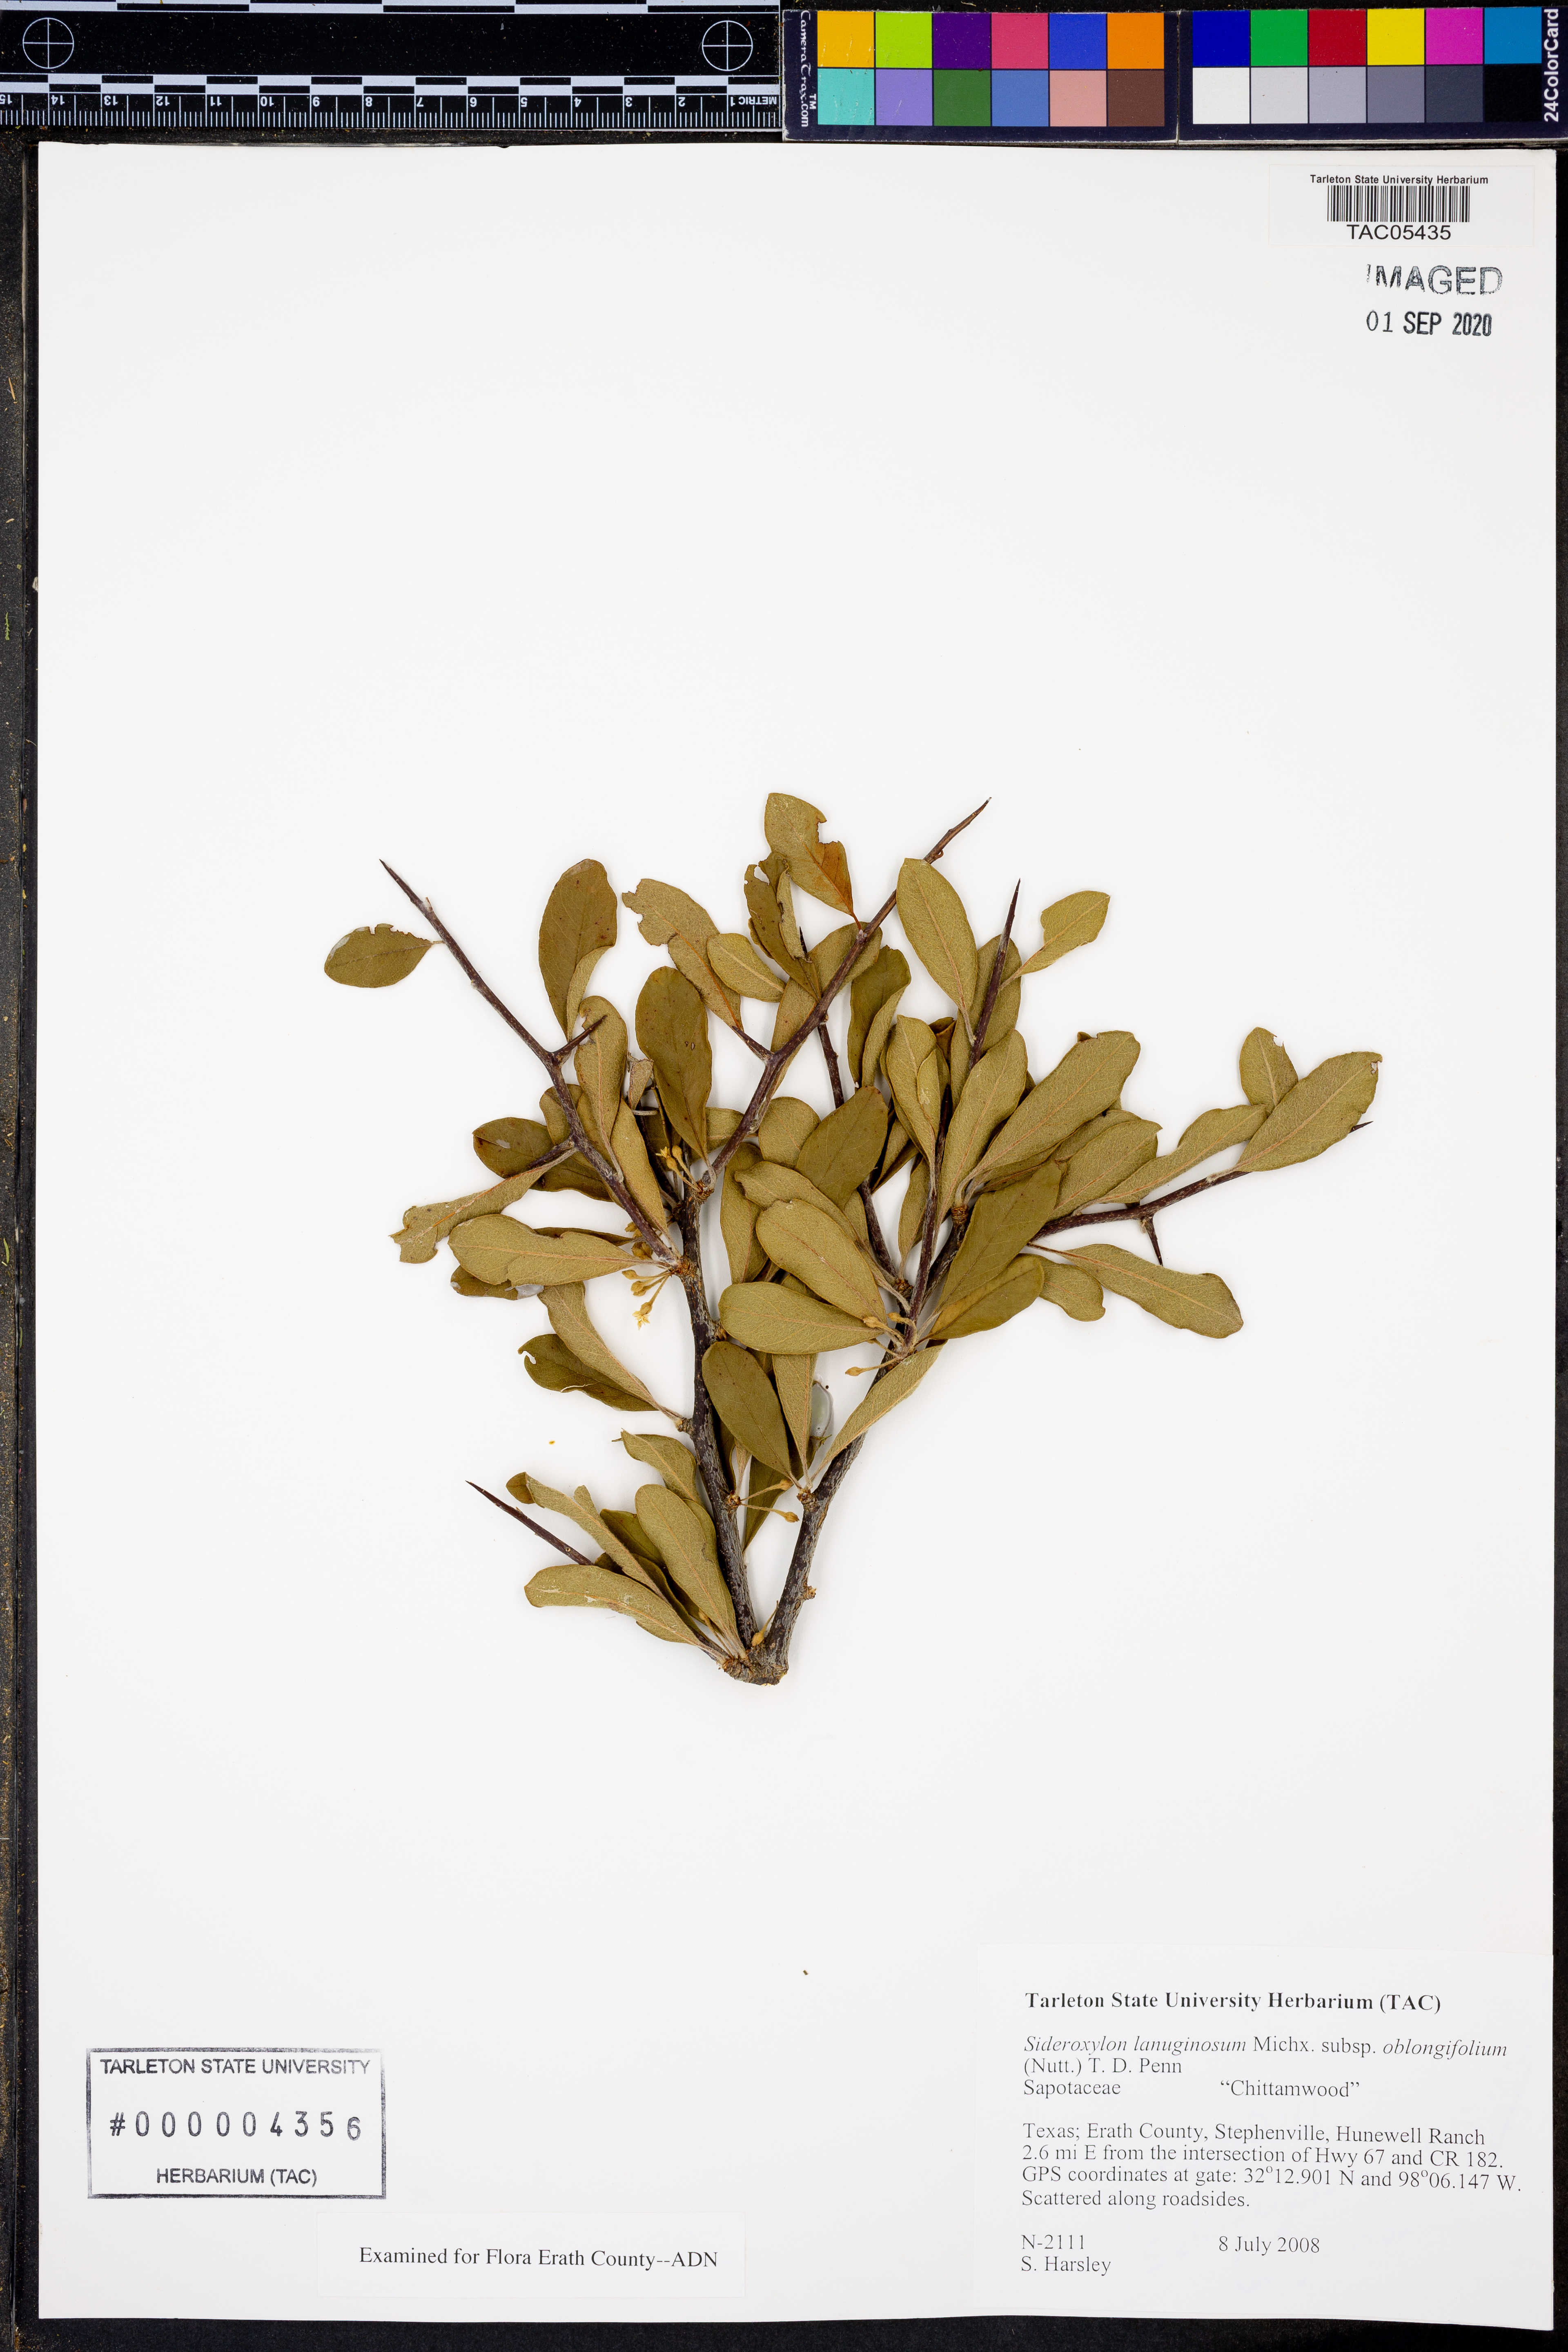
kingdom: Plantae
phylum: Tracheophyta
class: Magnoliopsida
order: Ericales
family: Sapotaceae
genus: Sideroxylon
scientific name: Sideroxylon lanuginosum
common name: Chittamwood
